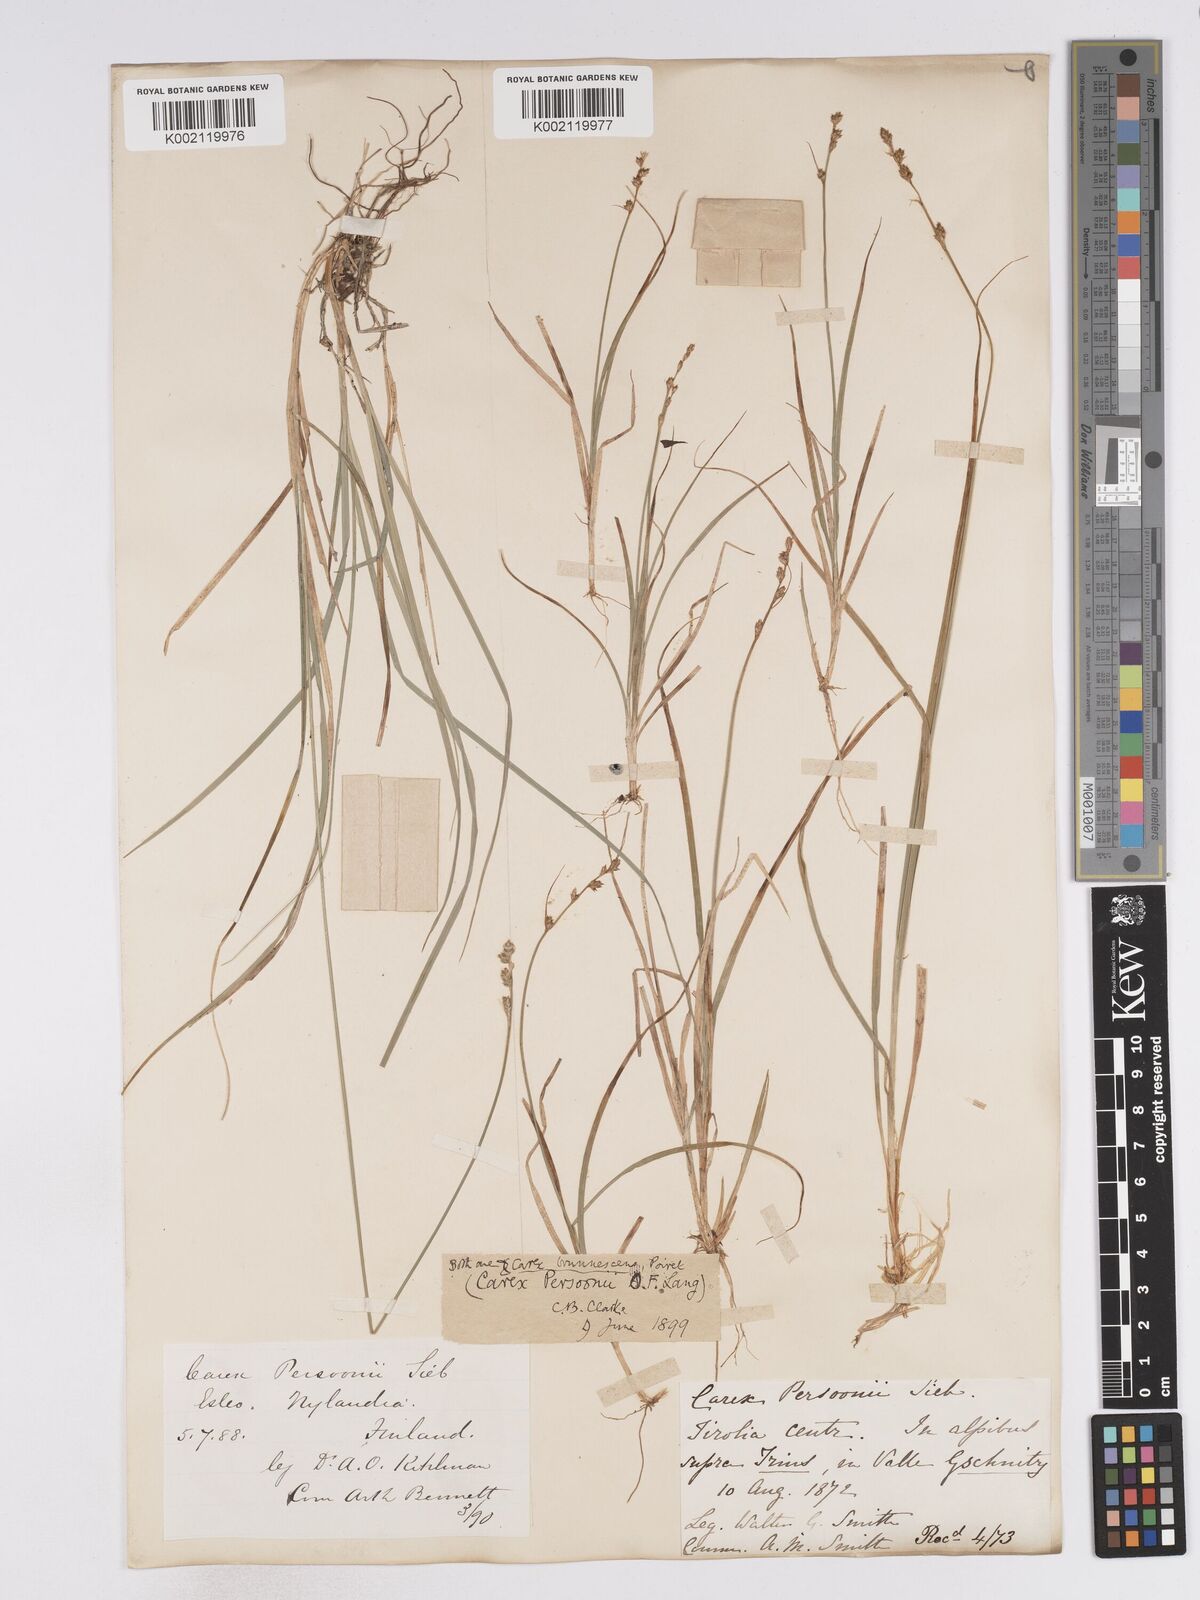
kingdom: Plantae
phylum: Tracheophyta
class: Liliopsida
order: Poales
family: Cyperaceae
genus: Carex
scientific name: Carex canescens
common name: White sedge
